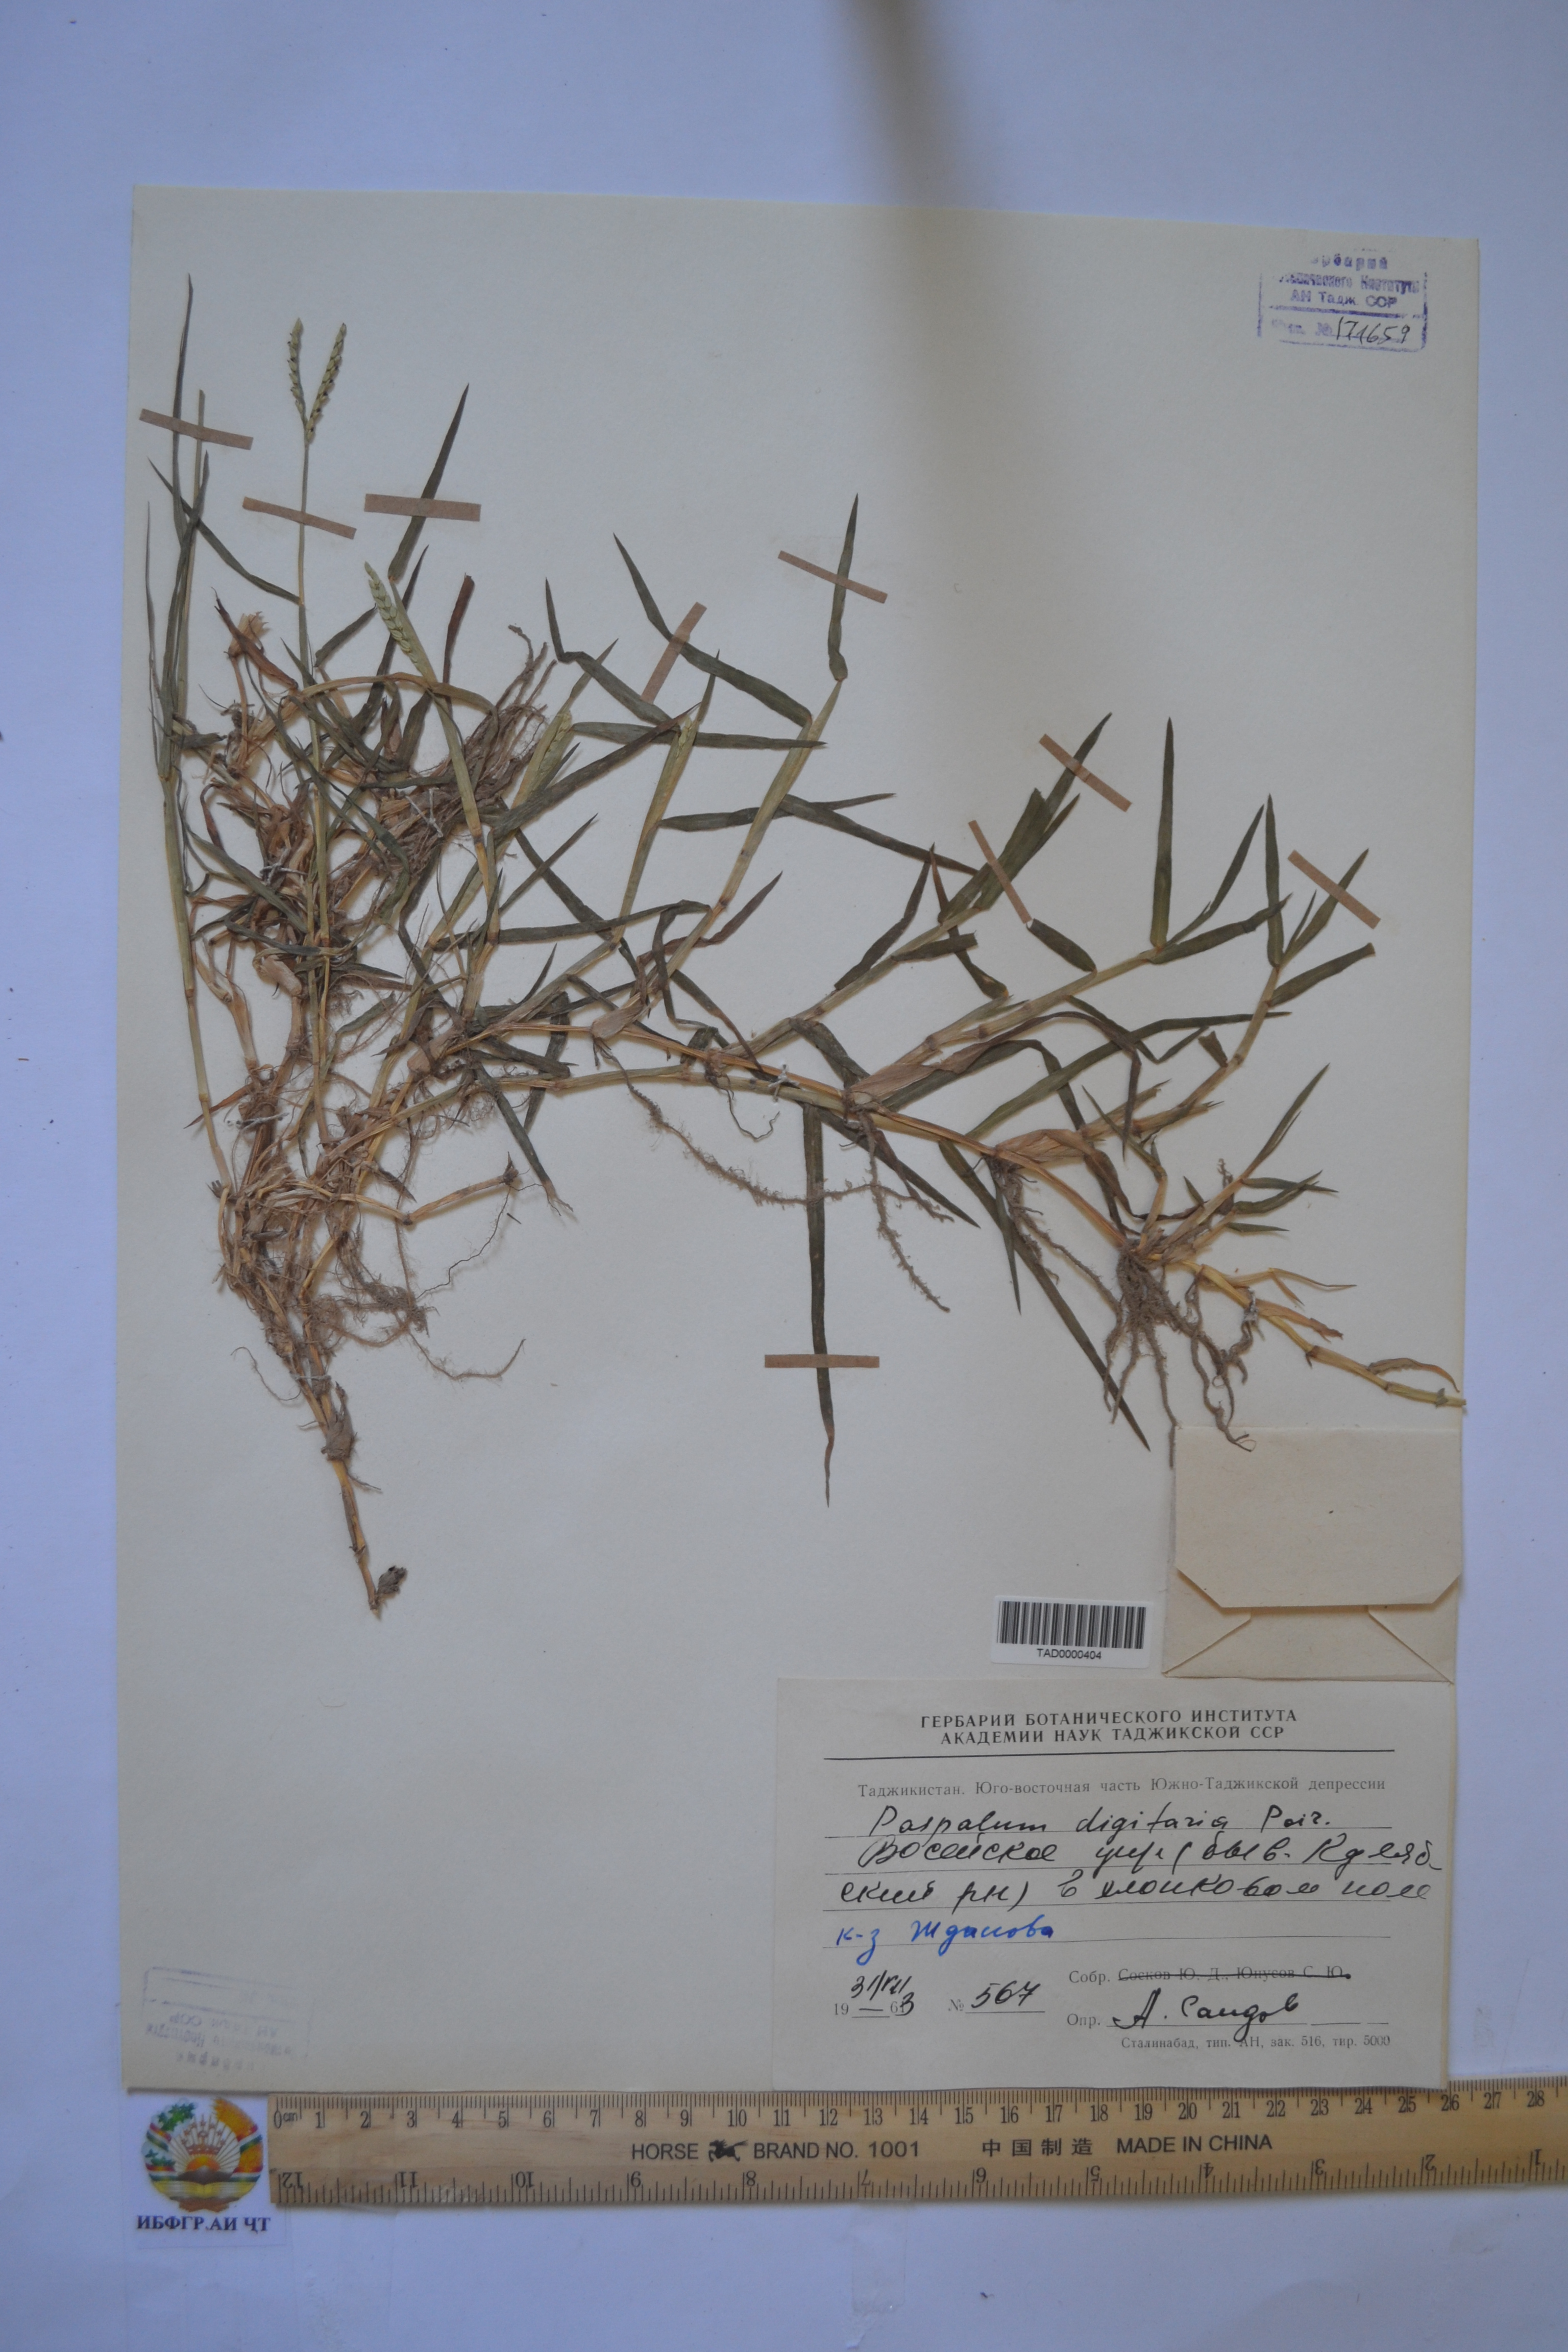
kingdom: Plantae
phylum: Tracheophyta
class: Liliopsida
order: Poales
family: Poaceae
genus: Paspalum
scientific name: Paspalum distichum
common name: Knotgrass
